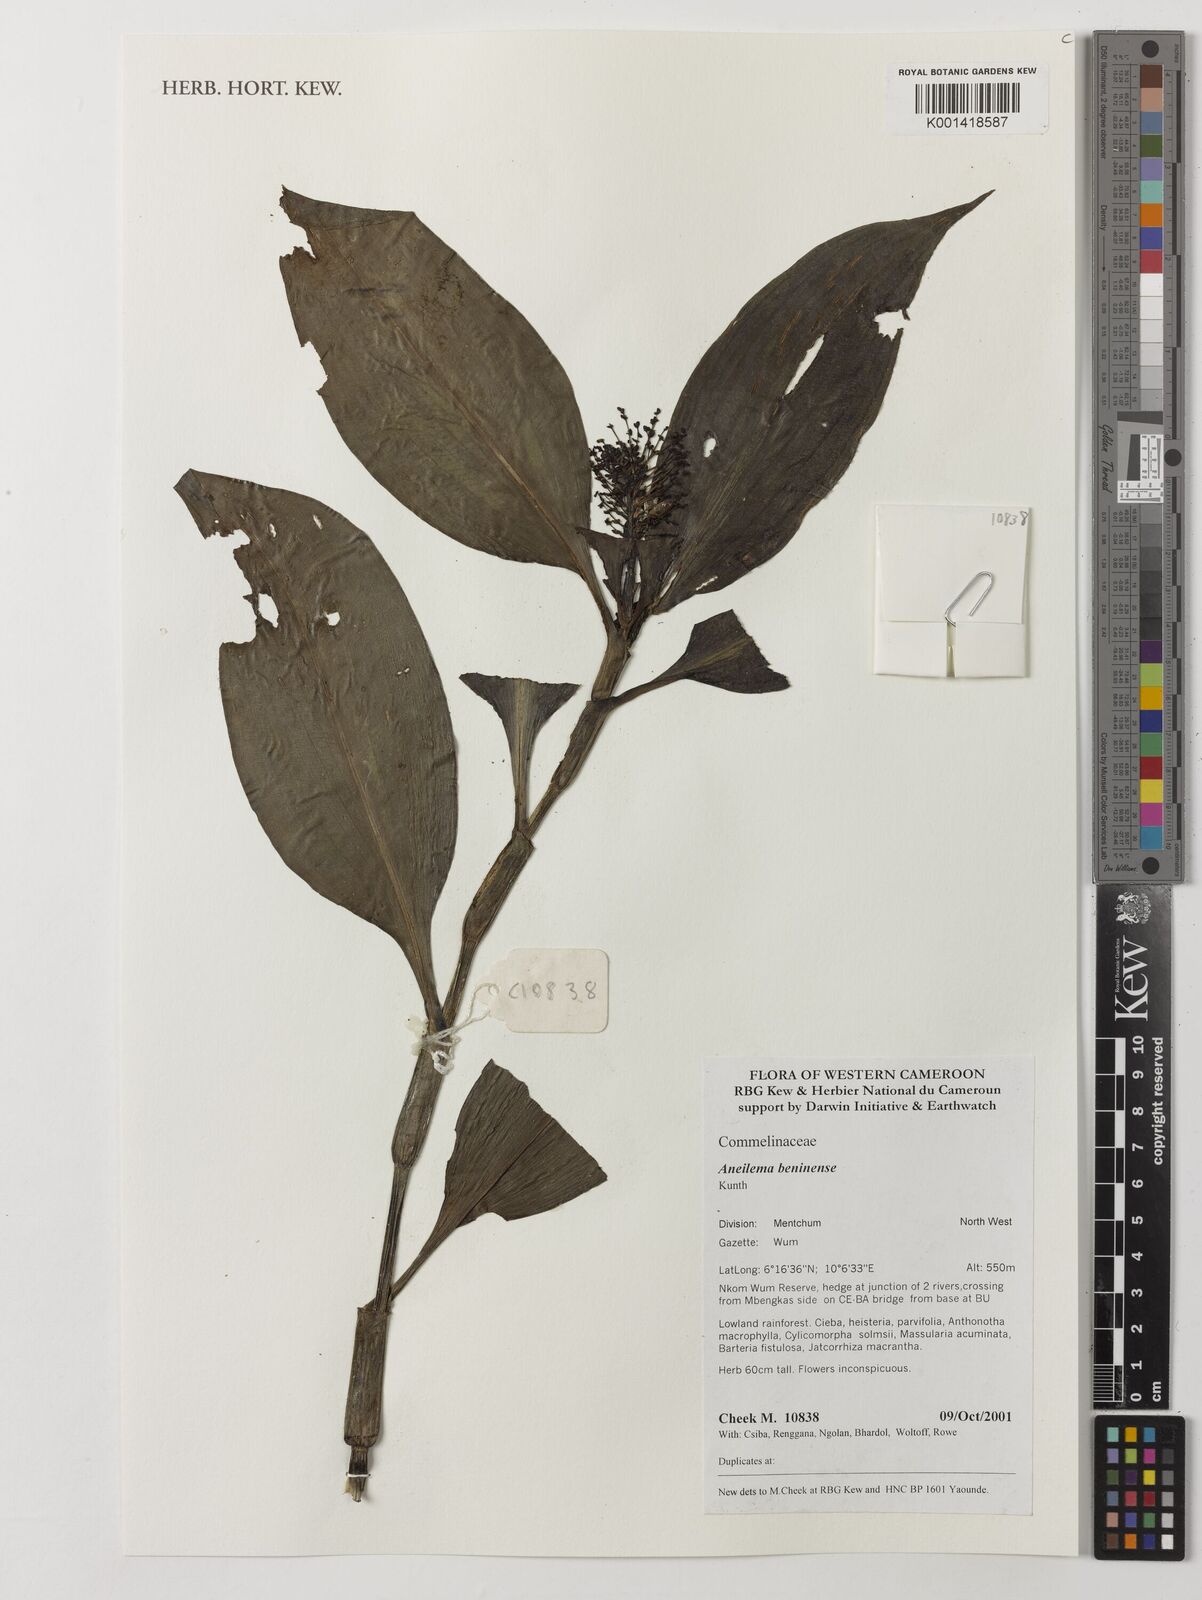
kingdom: Plantae
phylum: Tracheophyta
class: Liliopsida
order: Commelinales
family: Commelinaceae
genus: Aneilema
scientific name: Aneilema beniniense
